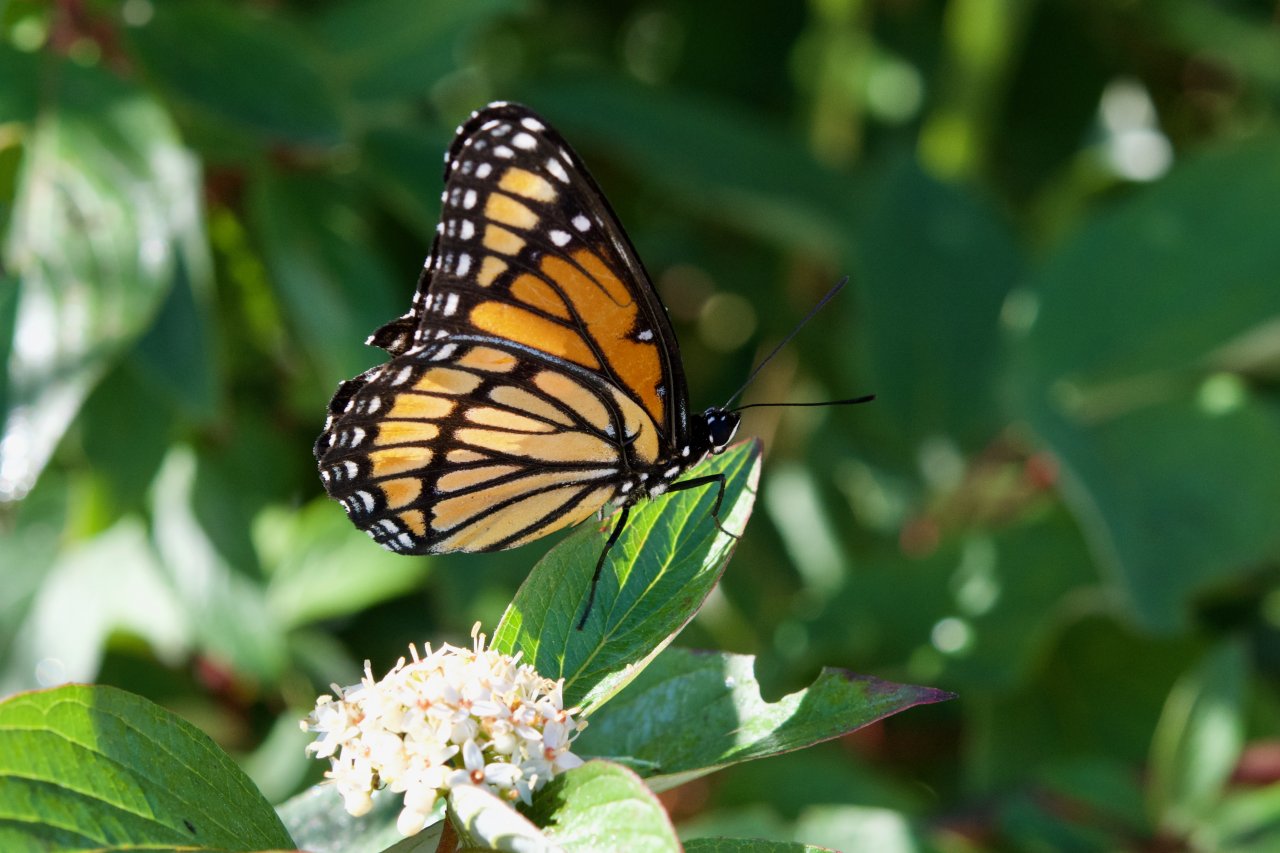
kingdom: Animalia
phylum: Arthropoda
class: Insecta
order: Lepidoptera
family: Nymphalidae
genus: Limenitis
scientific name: Limenitis archippus
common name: Viceroy
